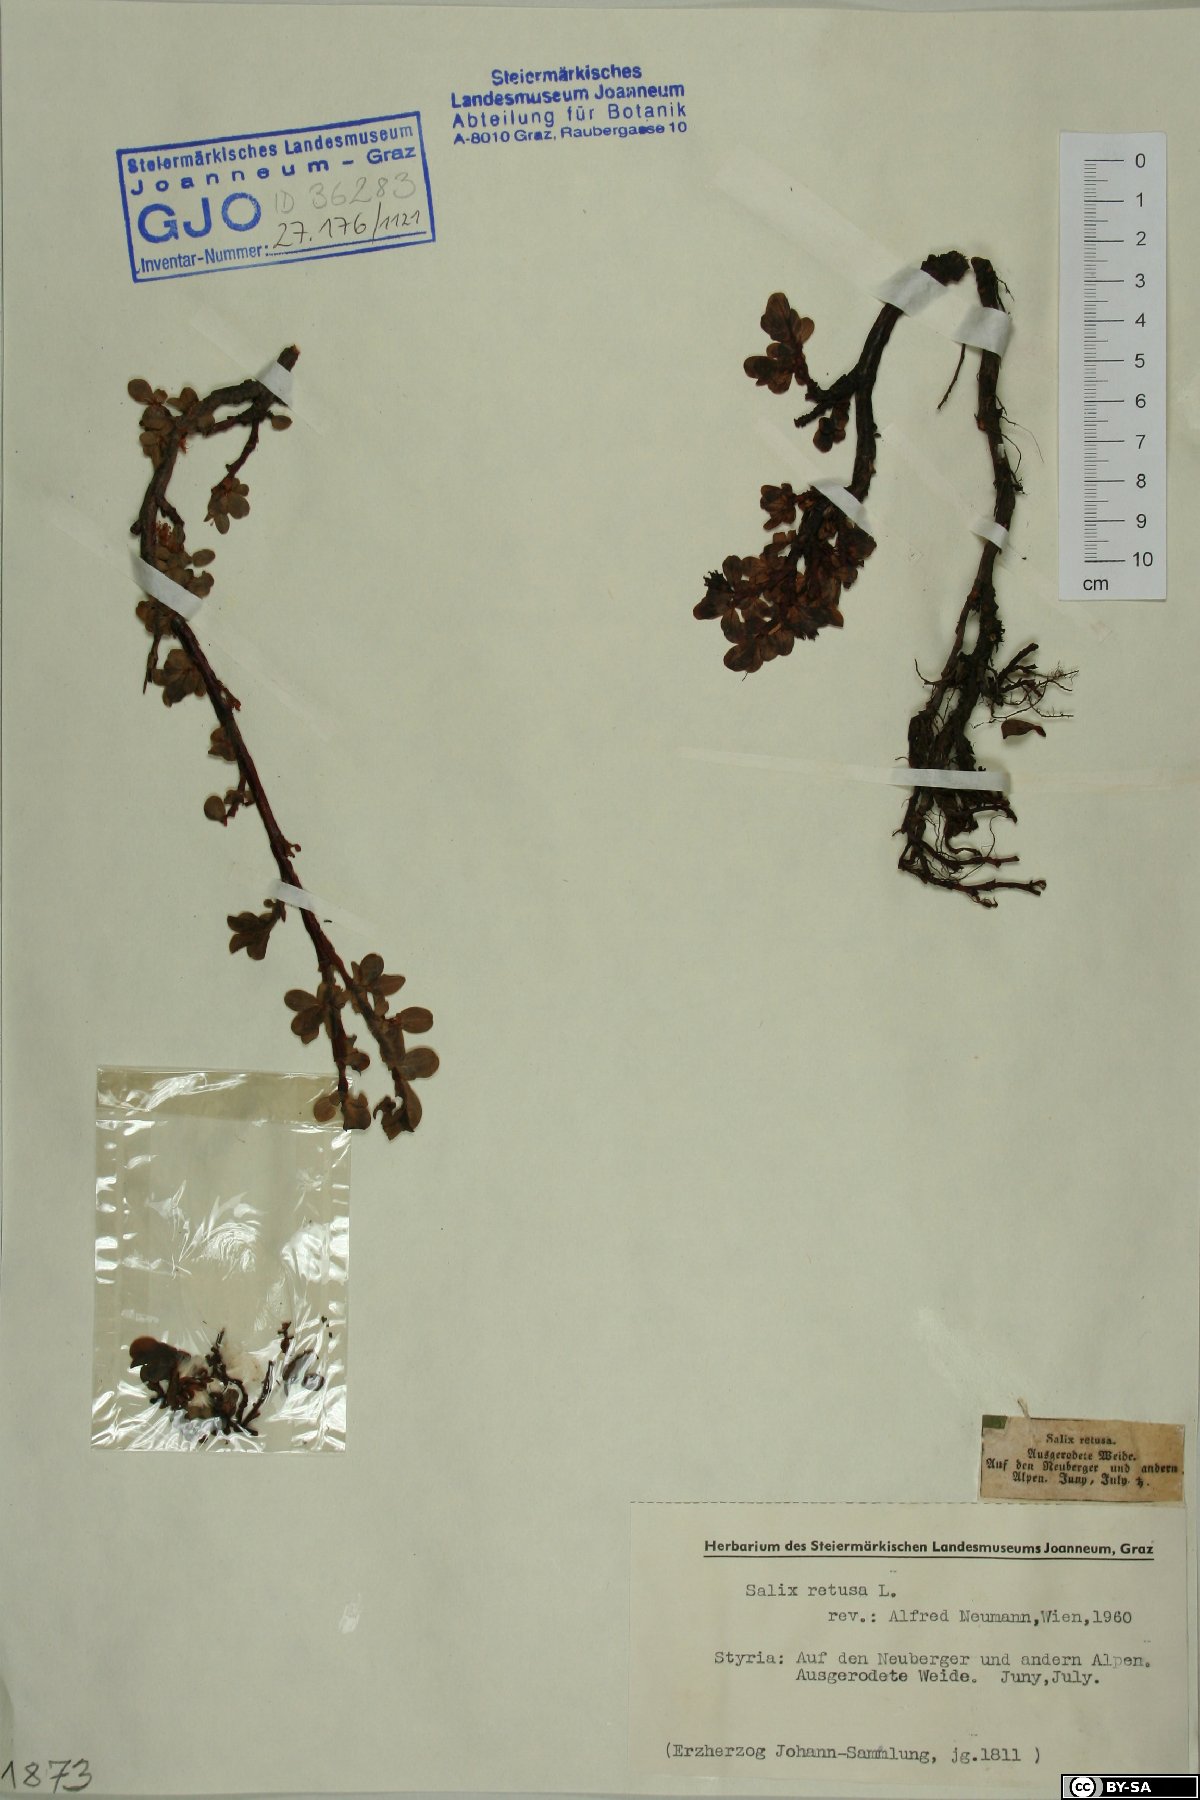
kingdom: Plantae
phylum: Tracheophyta
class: Magnoliopsida
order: Malpighiales
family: Salicaceae
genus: Salix
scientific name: Salix retusa
